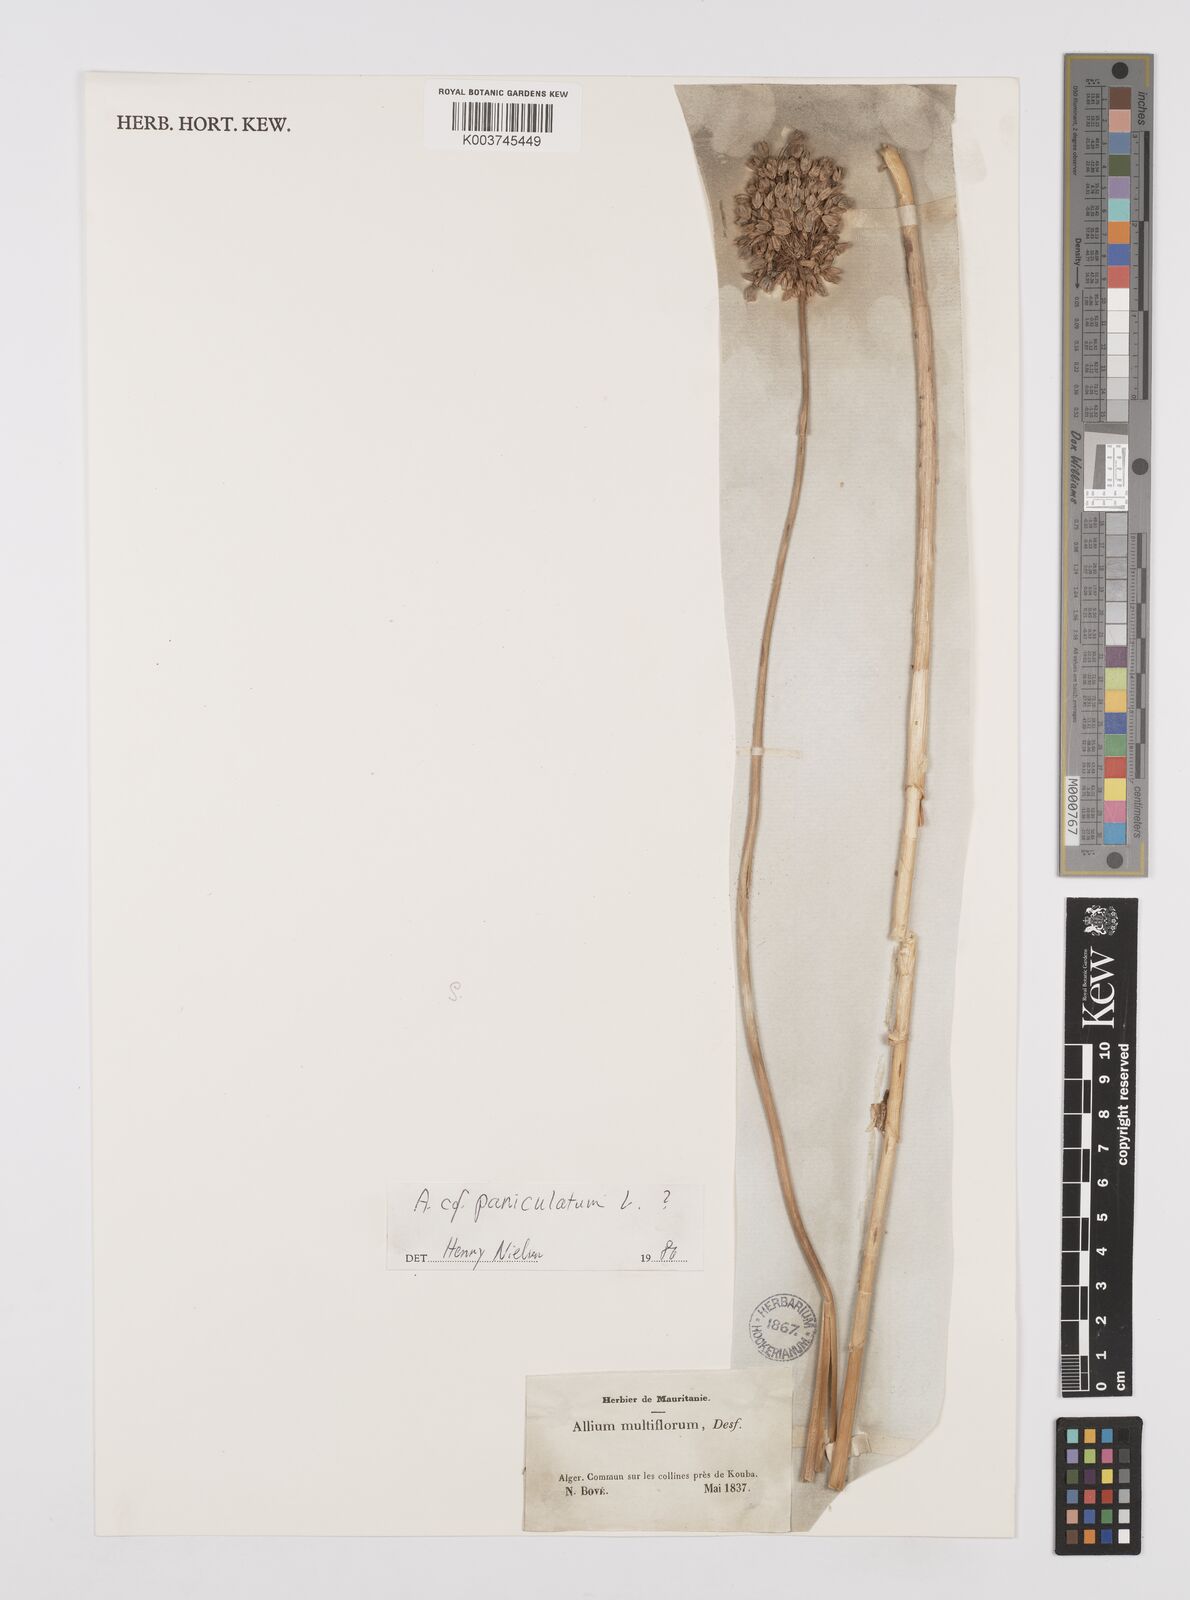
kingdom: Plantae
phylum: Tracheophyta
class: Liliopsida
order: Asparagales
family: Amaryllidaceae
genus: Allium
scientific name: Allium paniculatum
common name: Pale garlic
